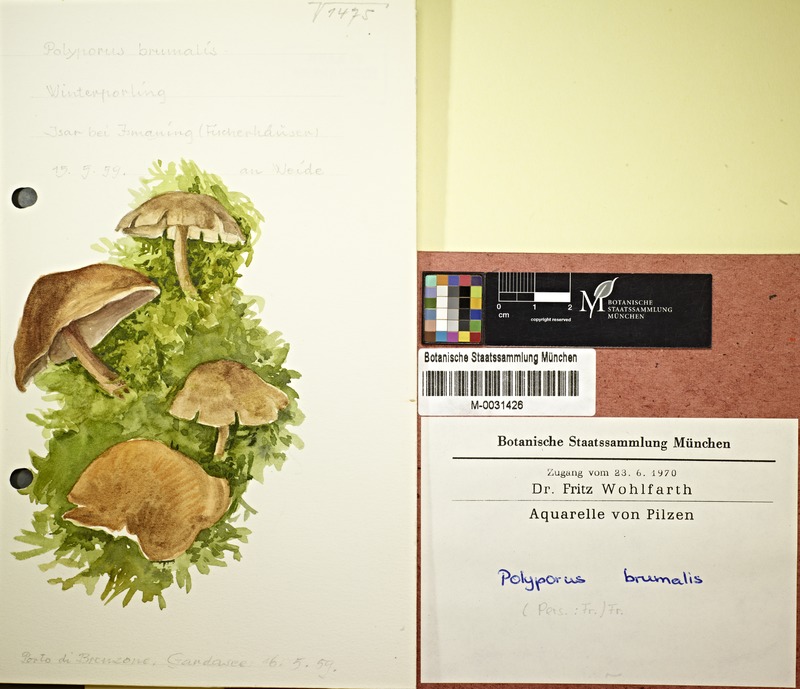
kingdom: Fungi
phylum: Basidiomycota
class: Agaricomycetes
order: Polyporales
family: Polyporaceae
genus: Lentinus
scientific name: Lentinus brumalis
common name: Winter polypore
